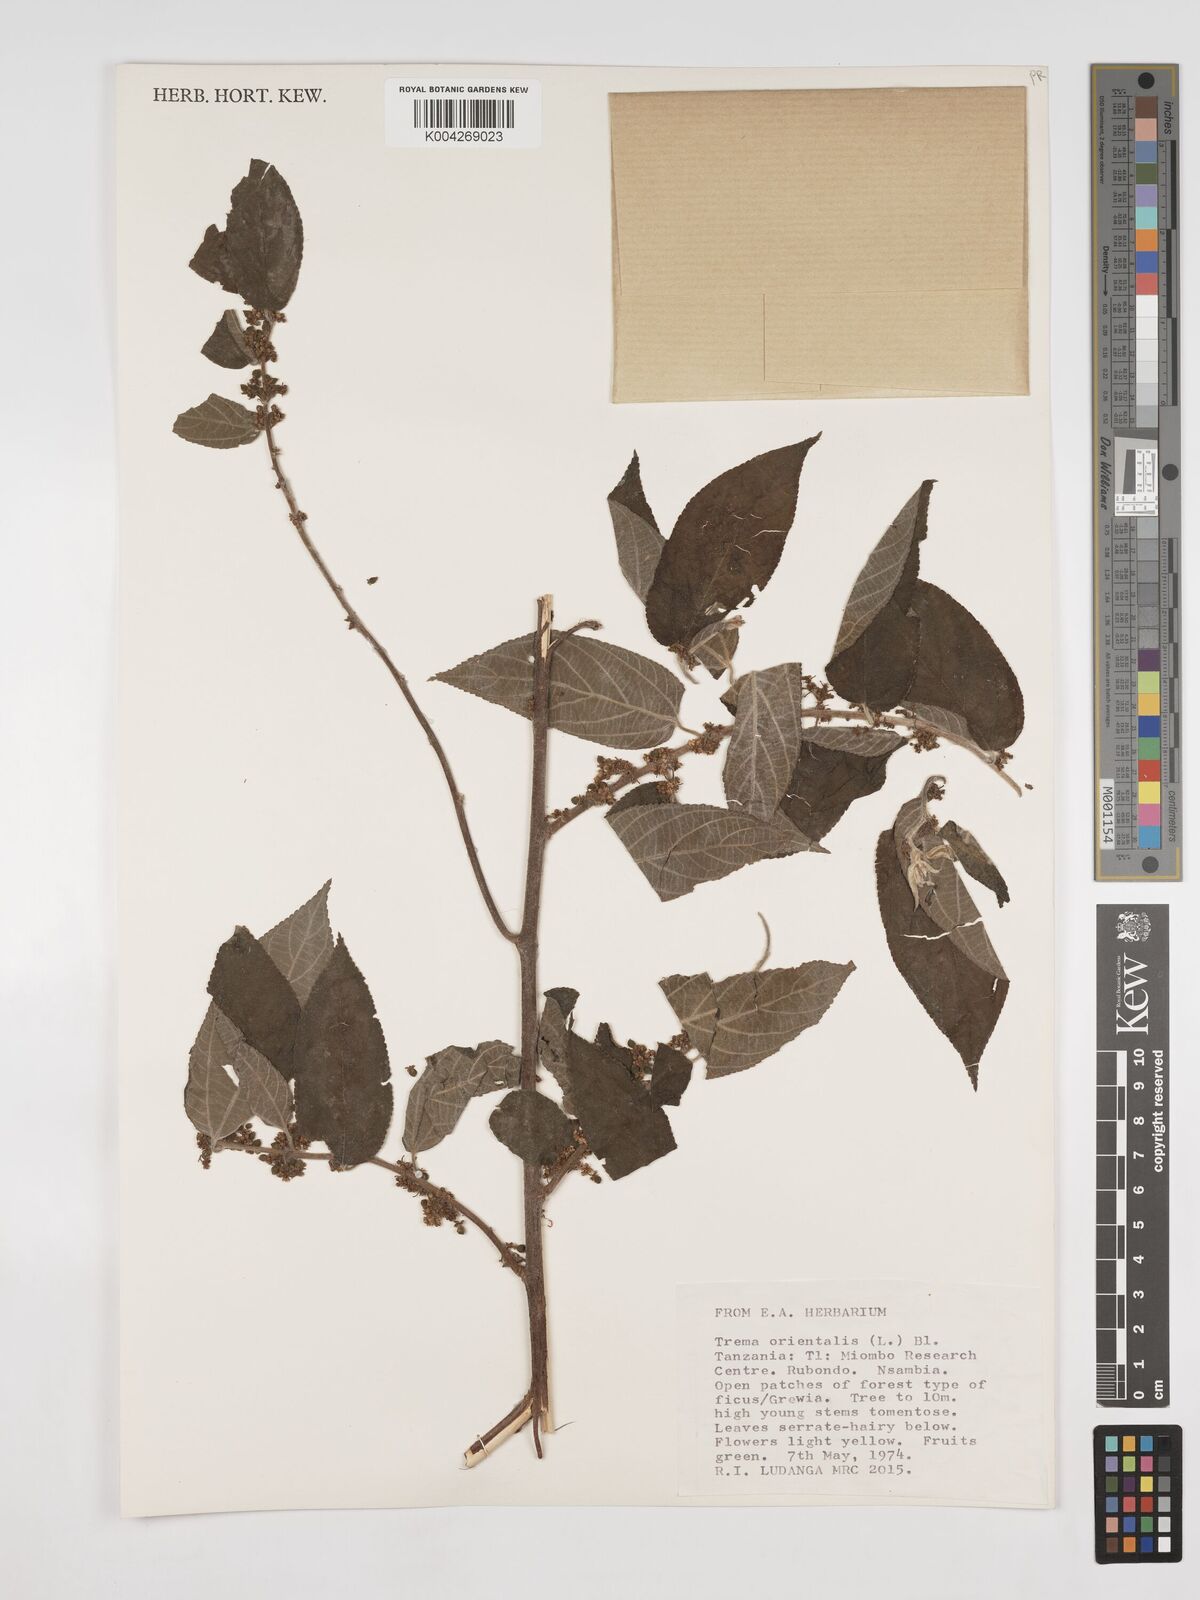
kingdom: Plantae
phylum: Tracheophyta
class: Magnoliopsida
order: Rosales
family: Cannabaceae
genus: Trema
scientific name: Trema orientale
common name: Indian charcoal tree
